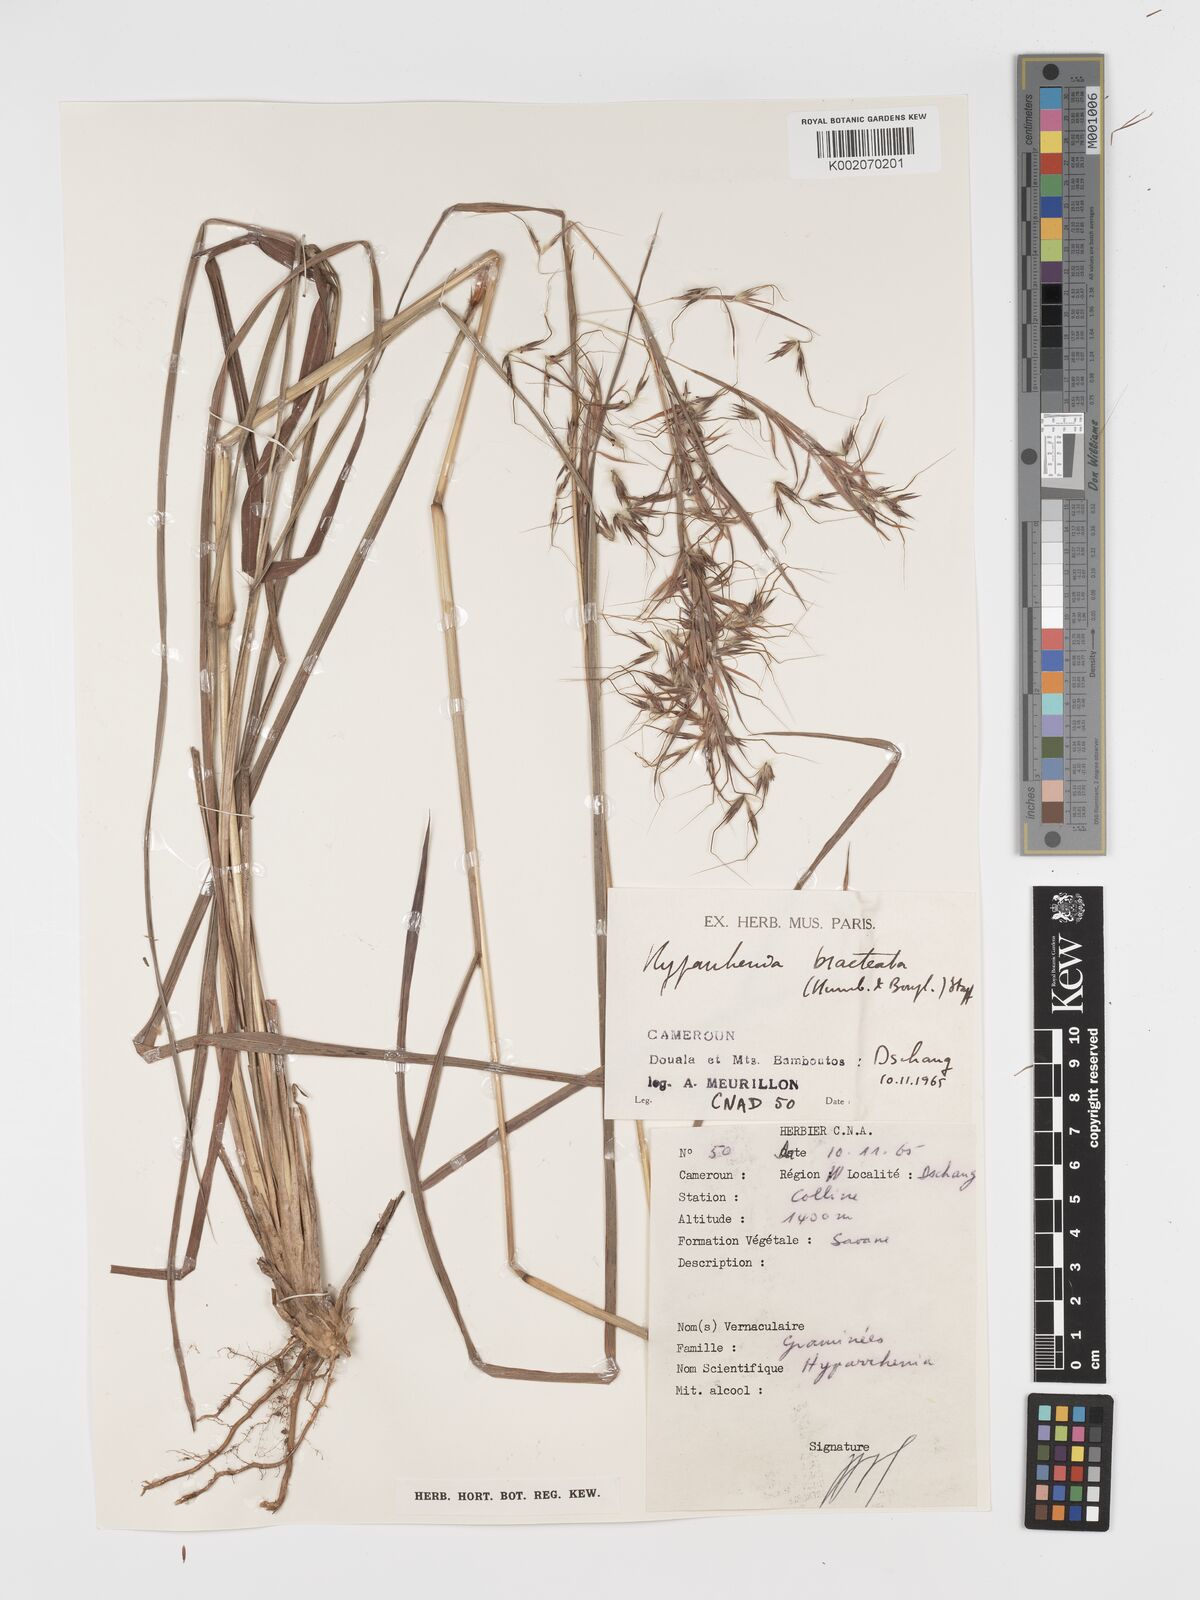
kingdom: Plantae
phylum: Tracheophyta
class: Liliopsida
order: Poales
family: Poaceae
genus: Hyparrhenia
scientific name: Hyparrhenia bracteata
